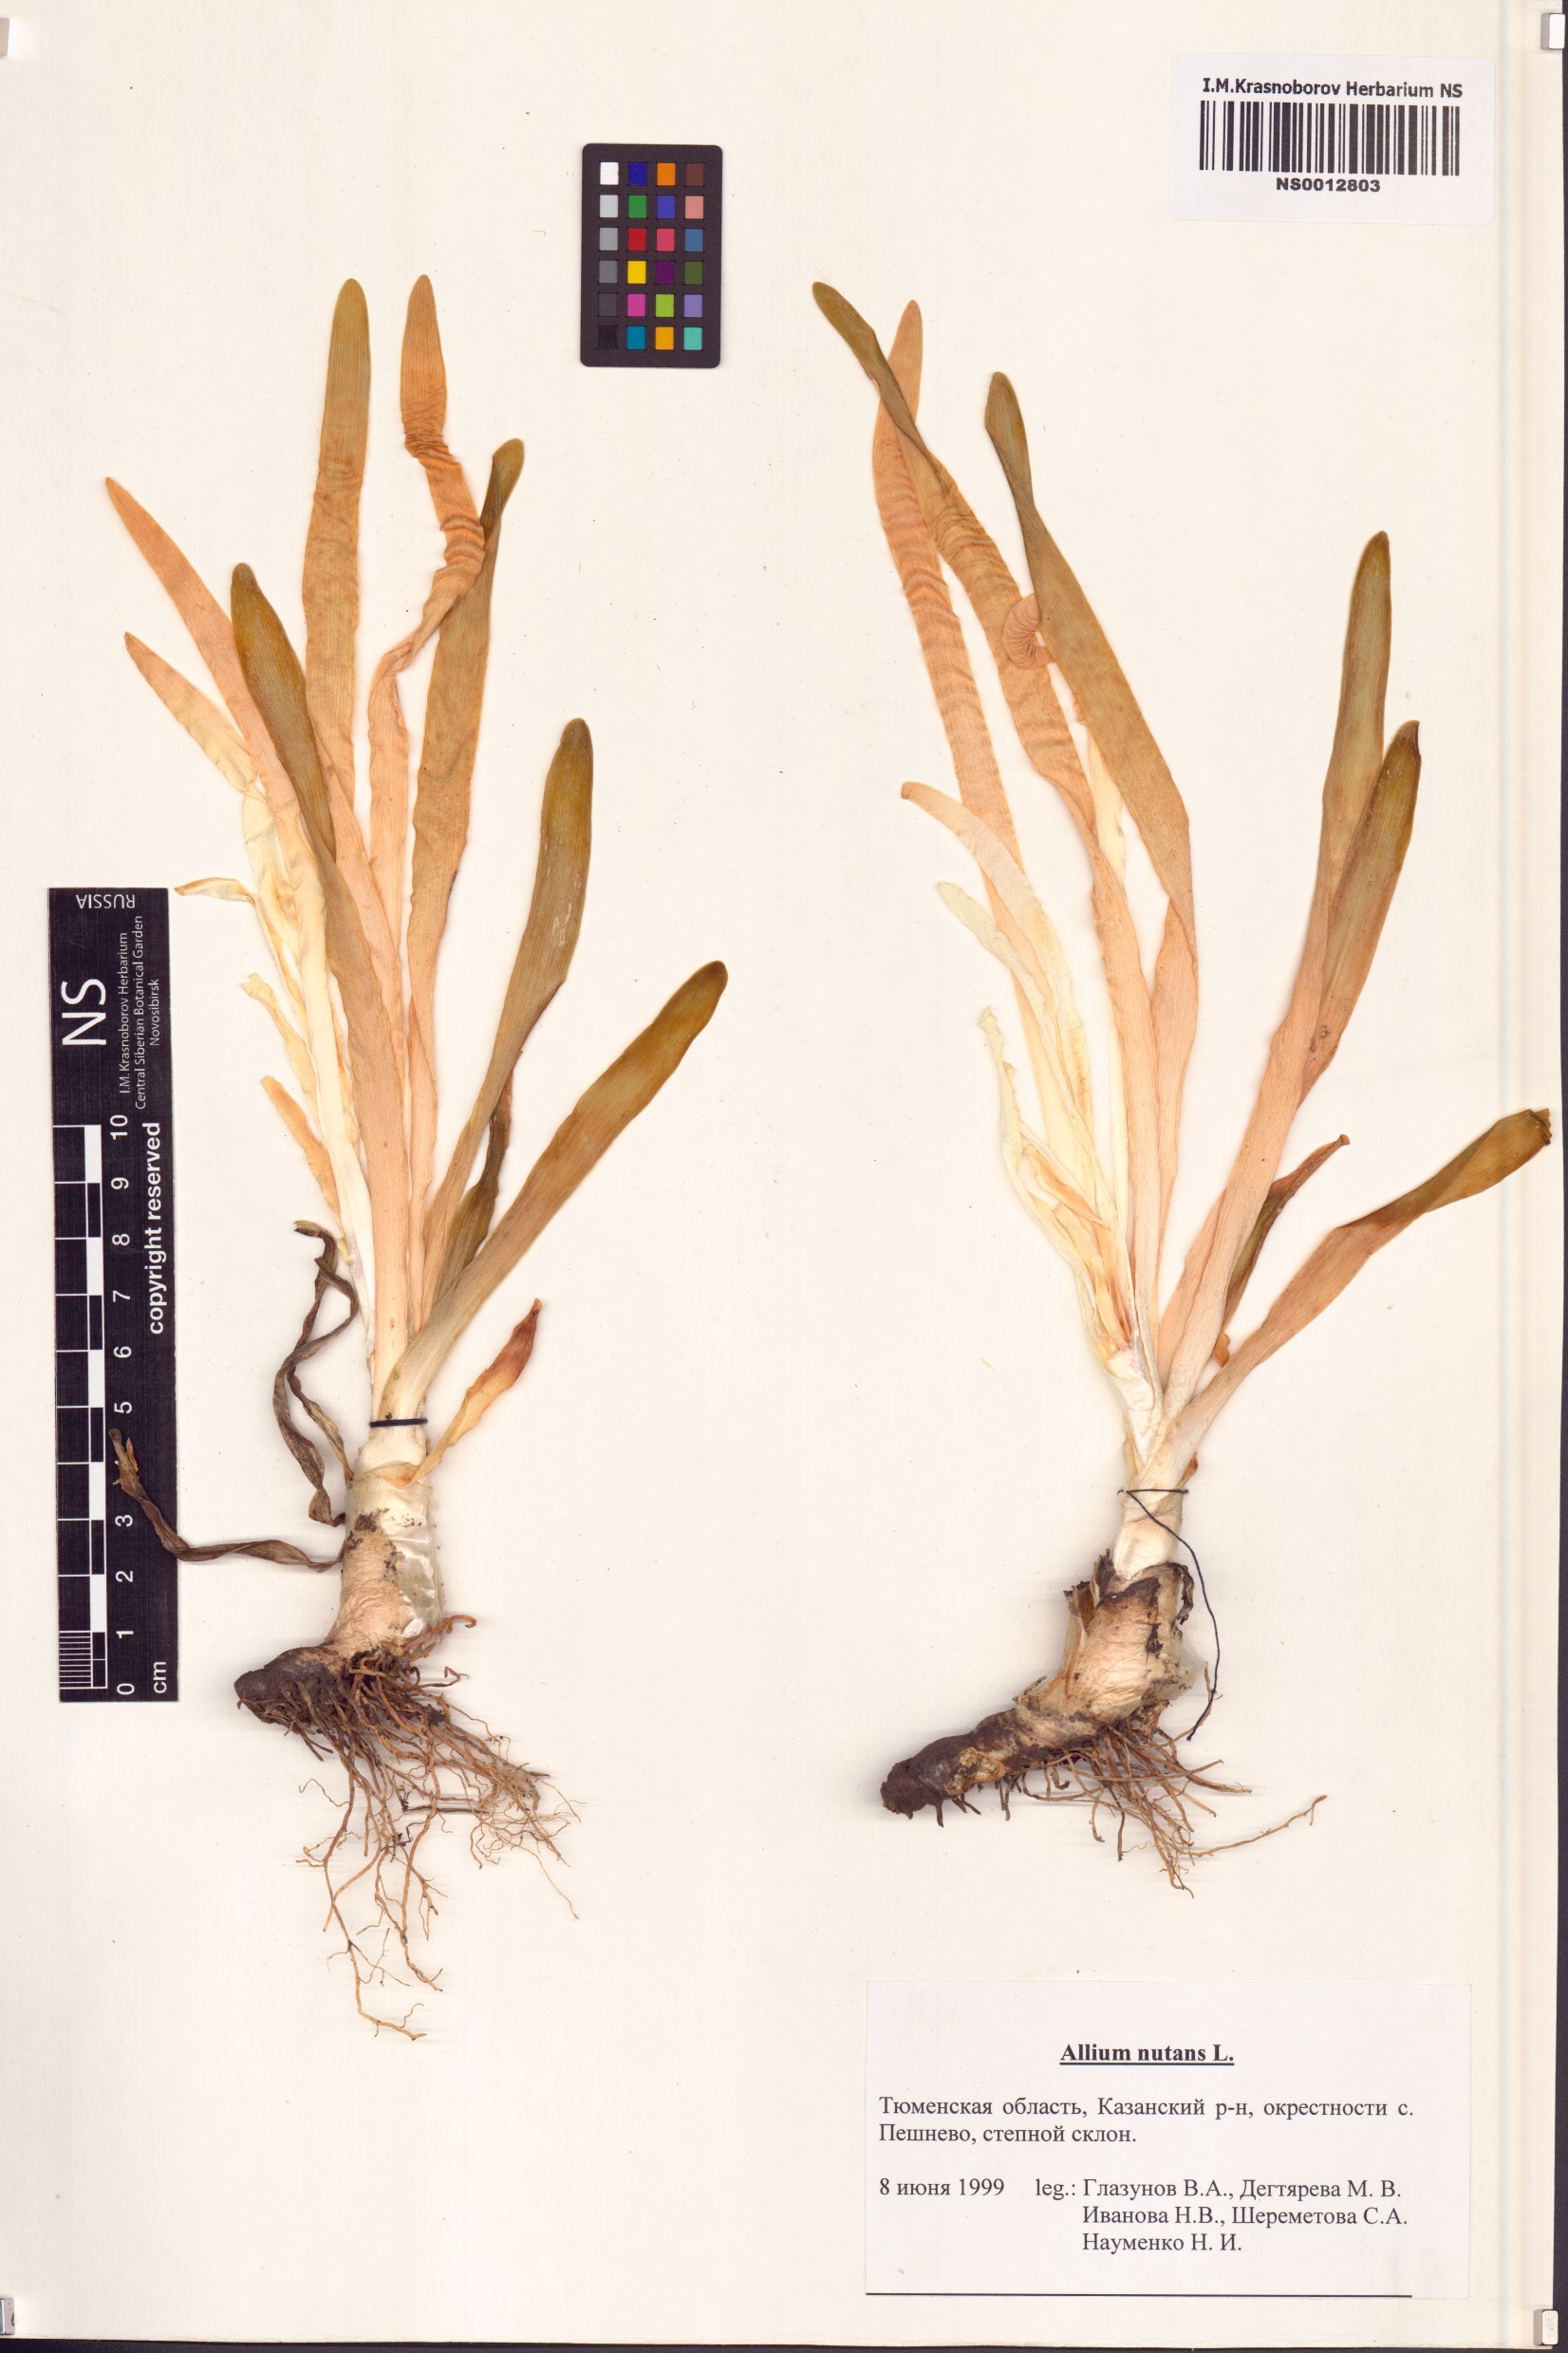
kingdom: Plantae
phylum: Tracheophyta
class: Liliopsida
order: Asparagales
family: Amaryllidaceae
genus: Allium
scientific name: Allium nutans
